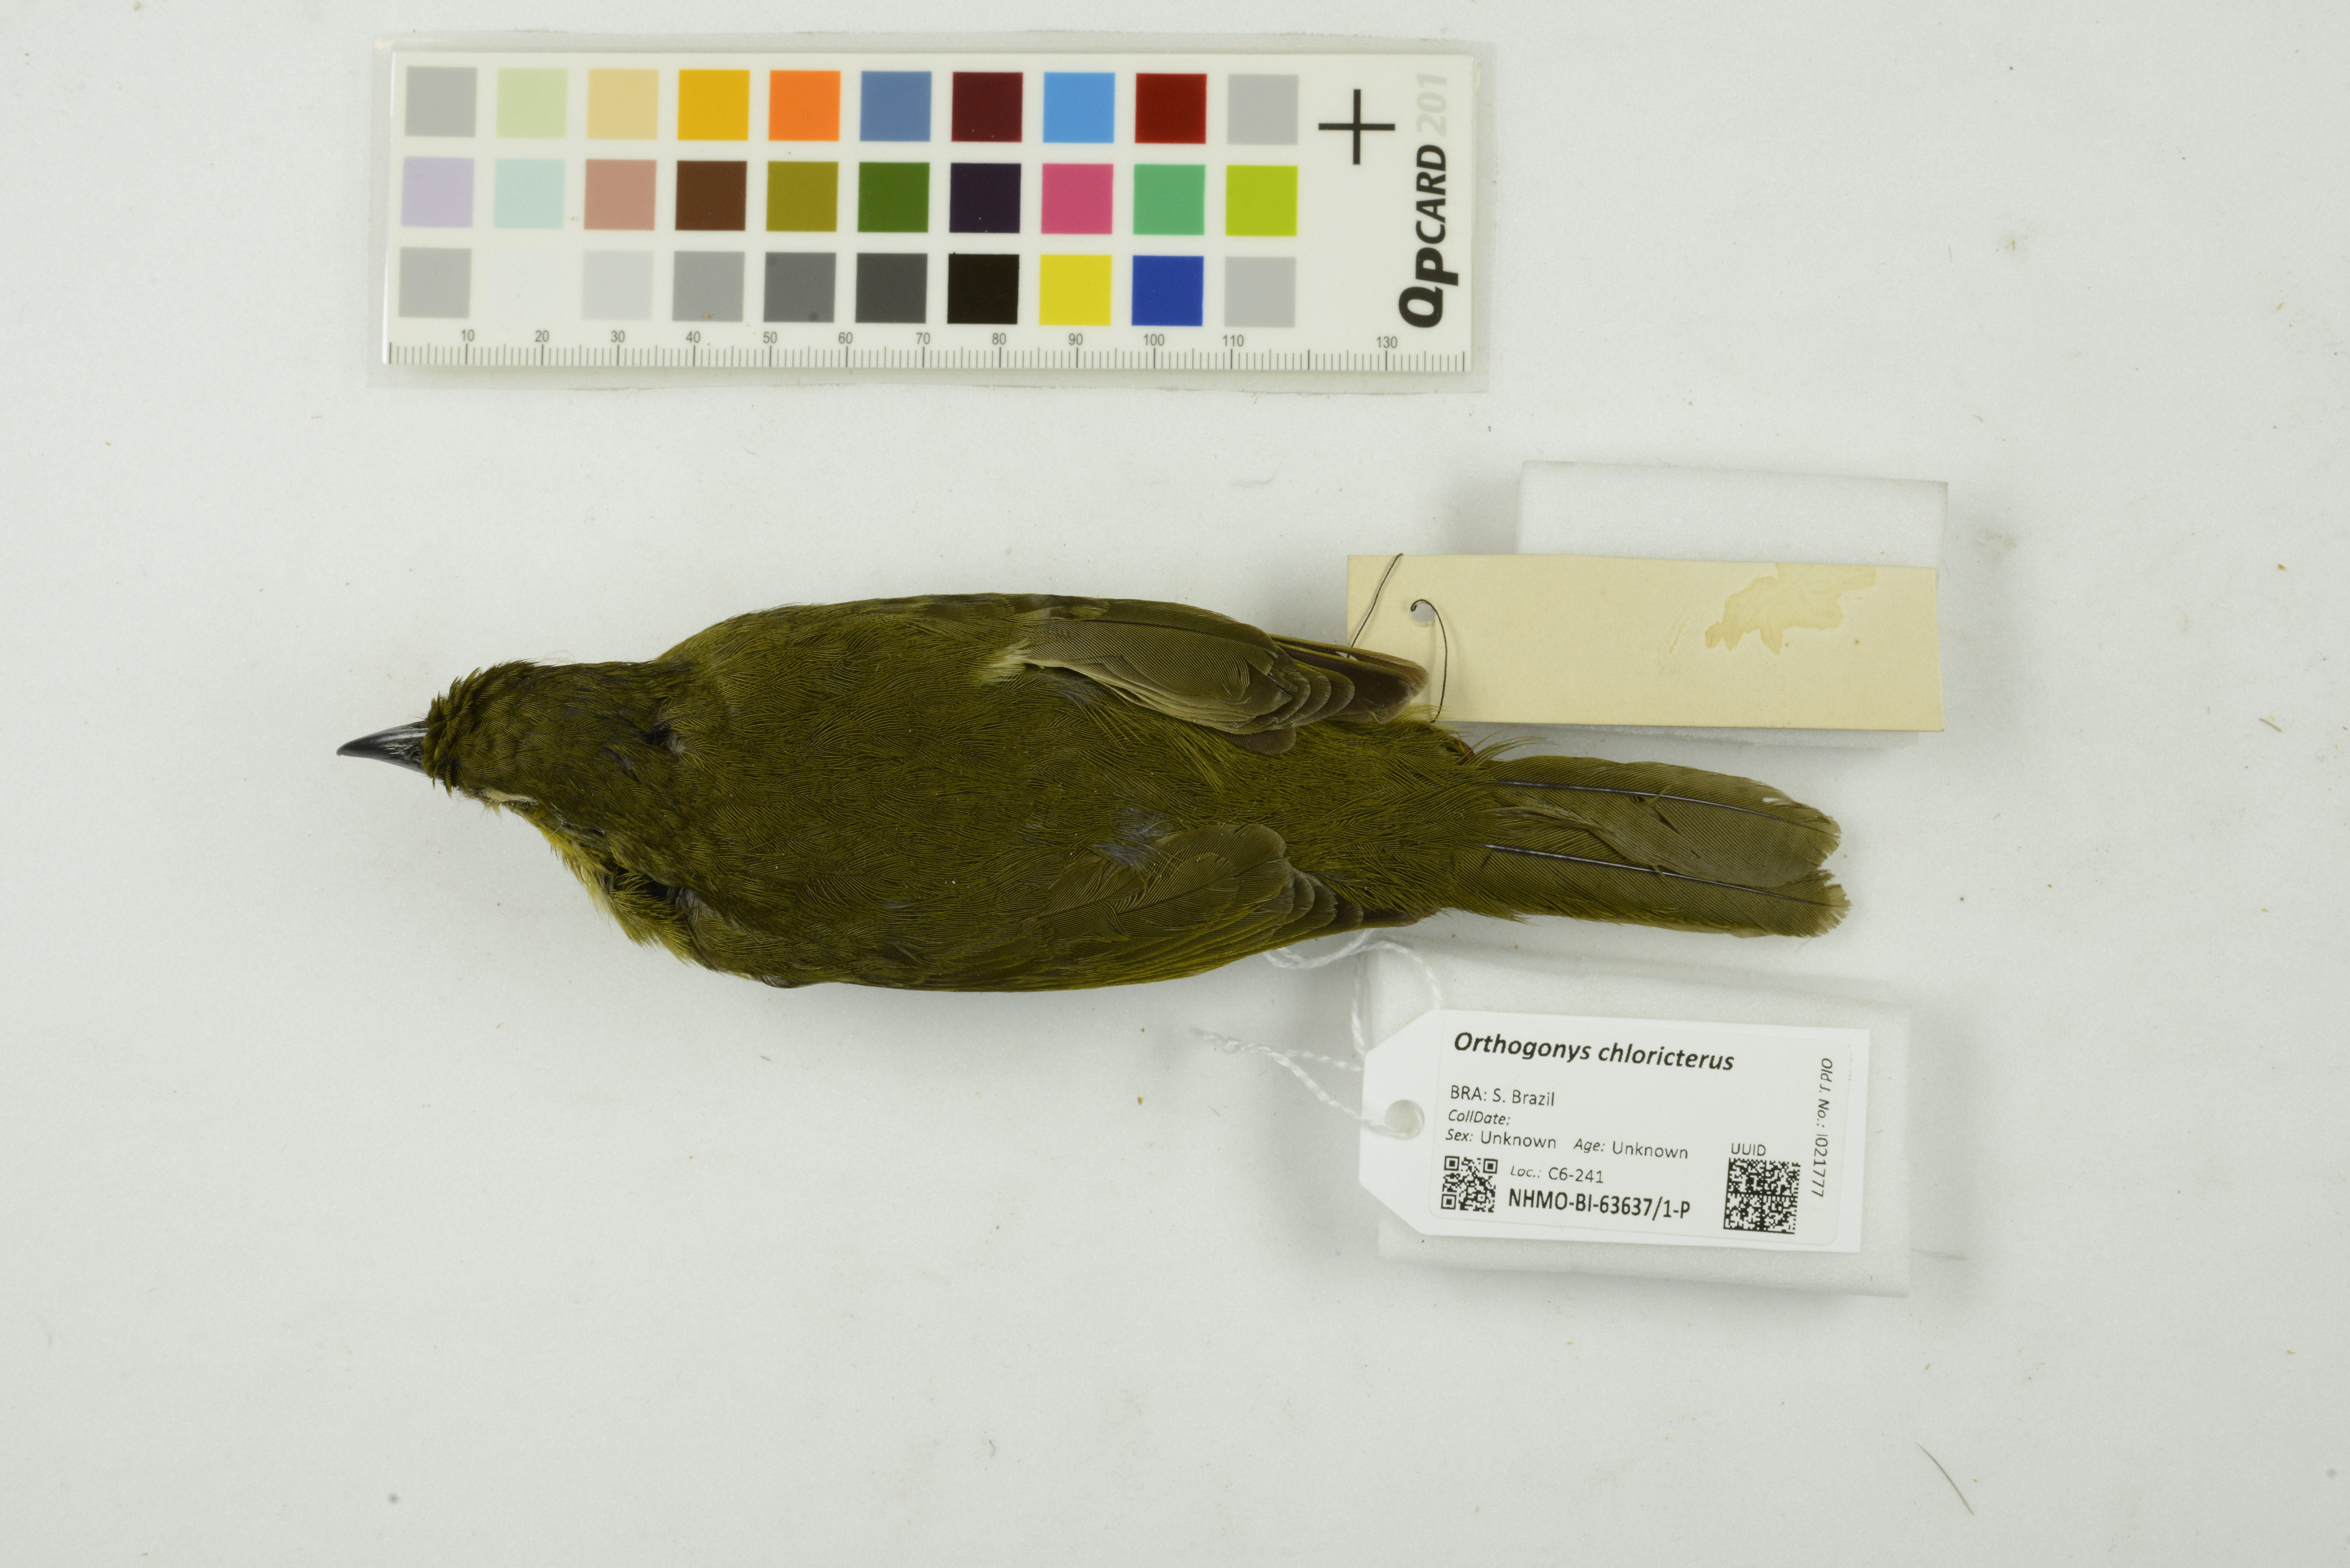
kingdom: Animalia
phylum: Chordata
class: Aves
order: Passeriformes
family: Mitrospingidae
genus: Orthogonys
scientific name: Orthogonys chloricterus
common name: Olive-green tanager
